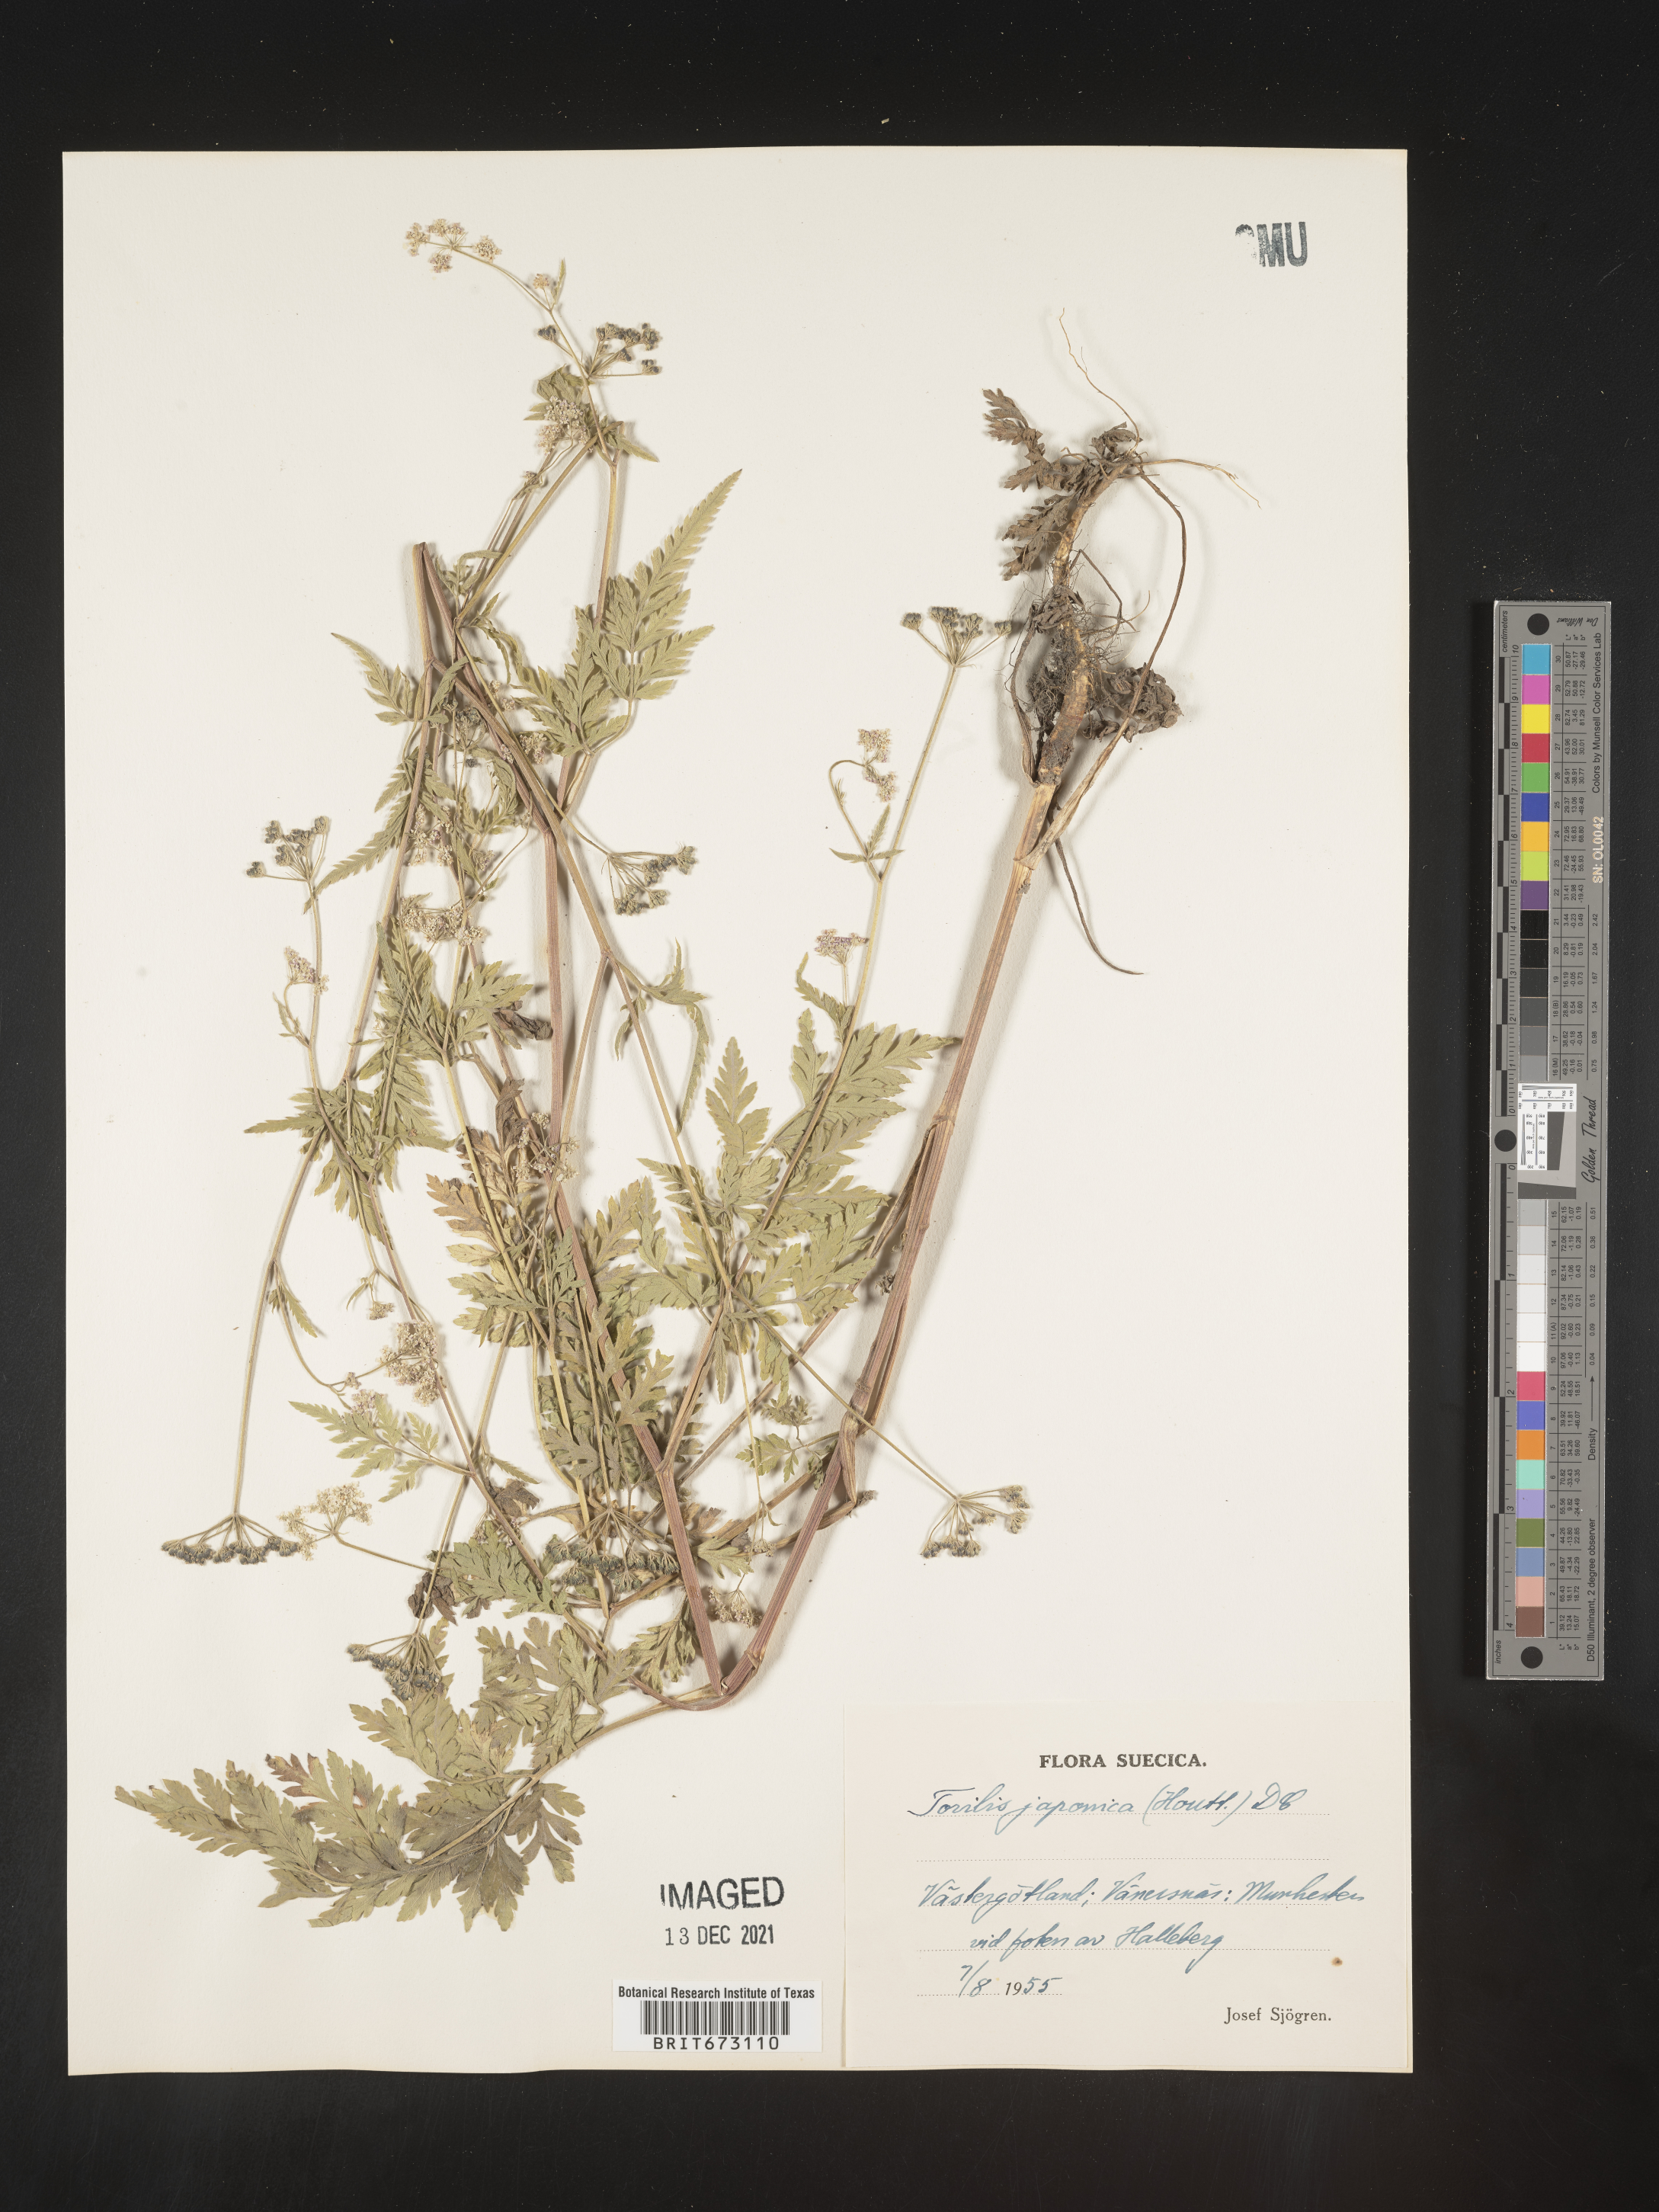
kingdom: Plantae
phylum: Tracheophyta
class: Magnoliopsida
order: Apiales
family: Apiaceae
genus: Torilis
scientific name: Torilis
